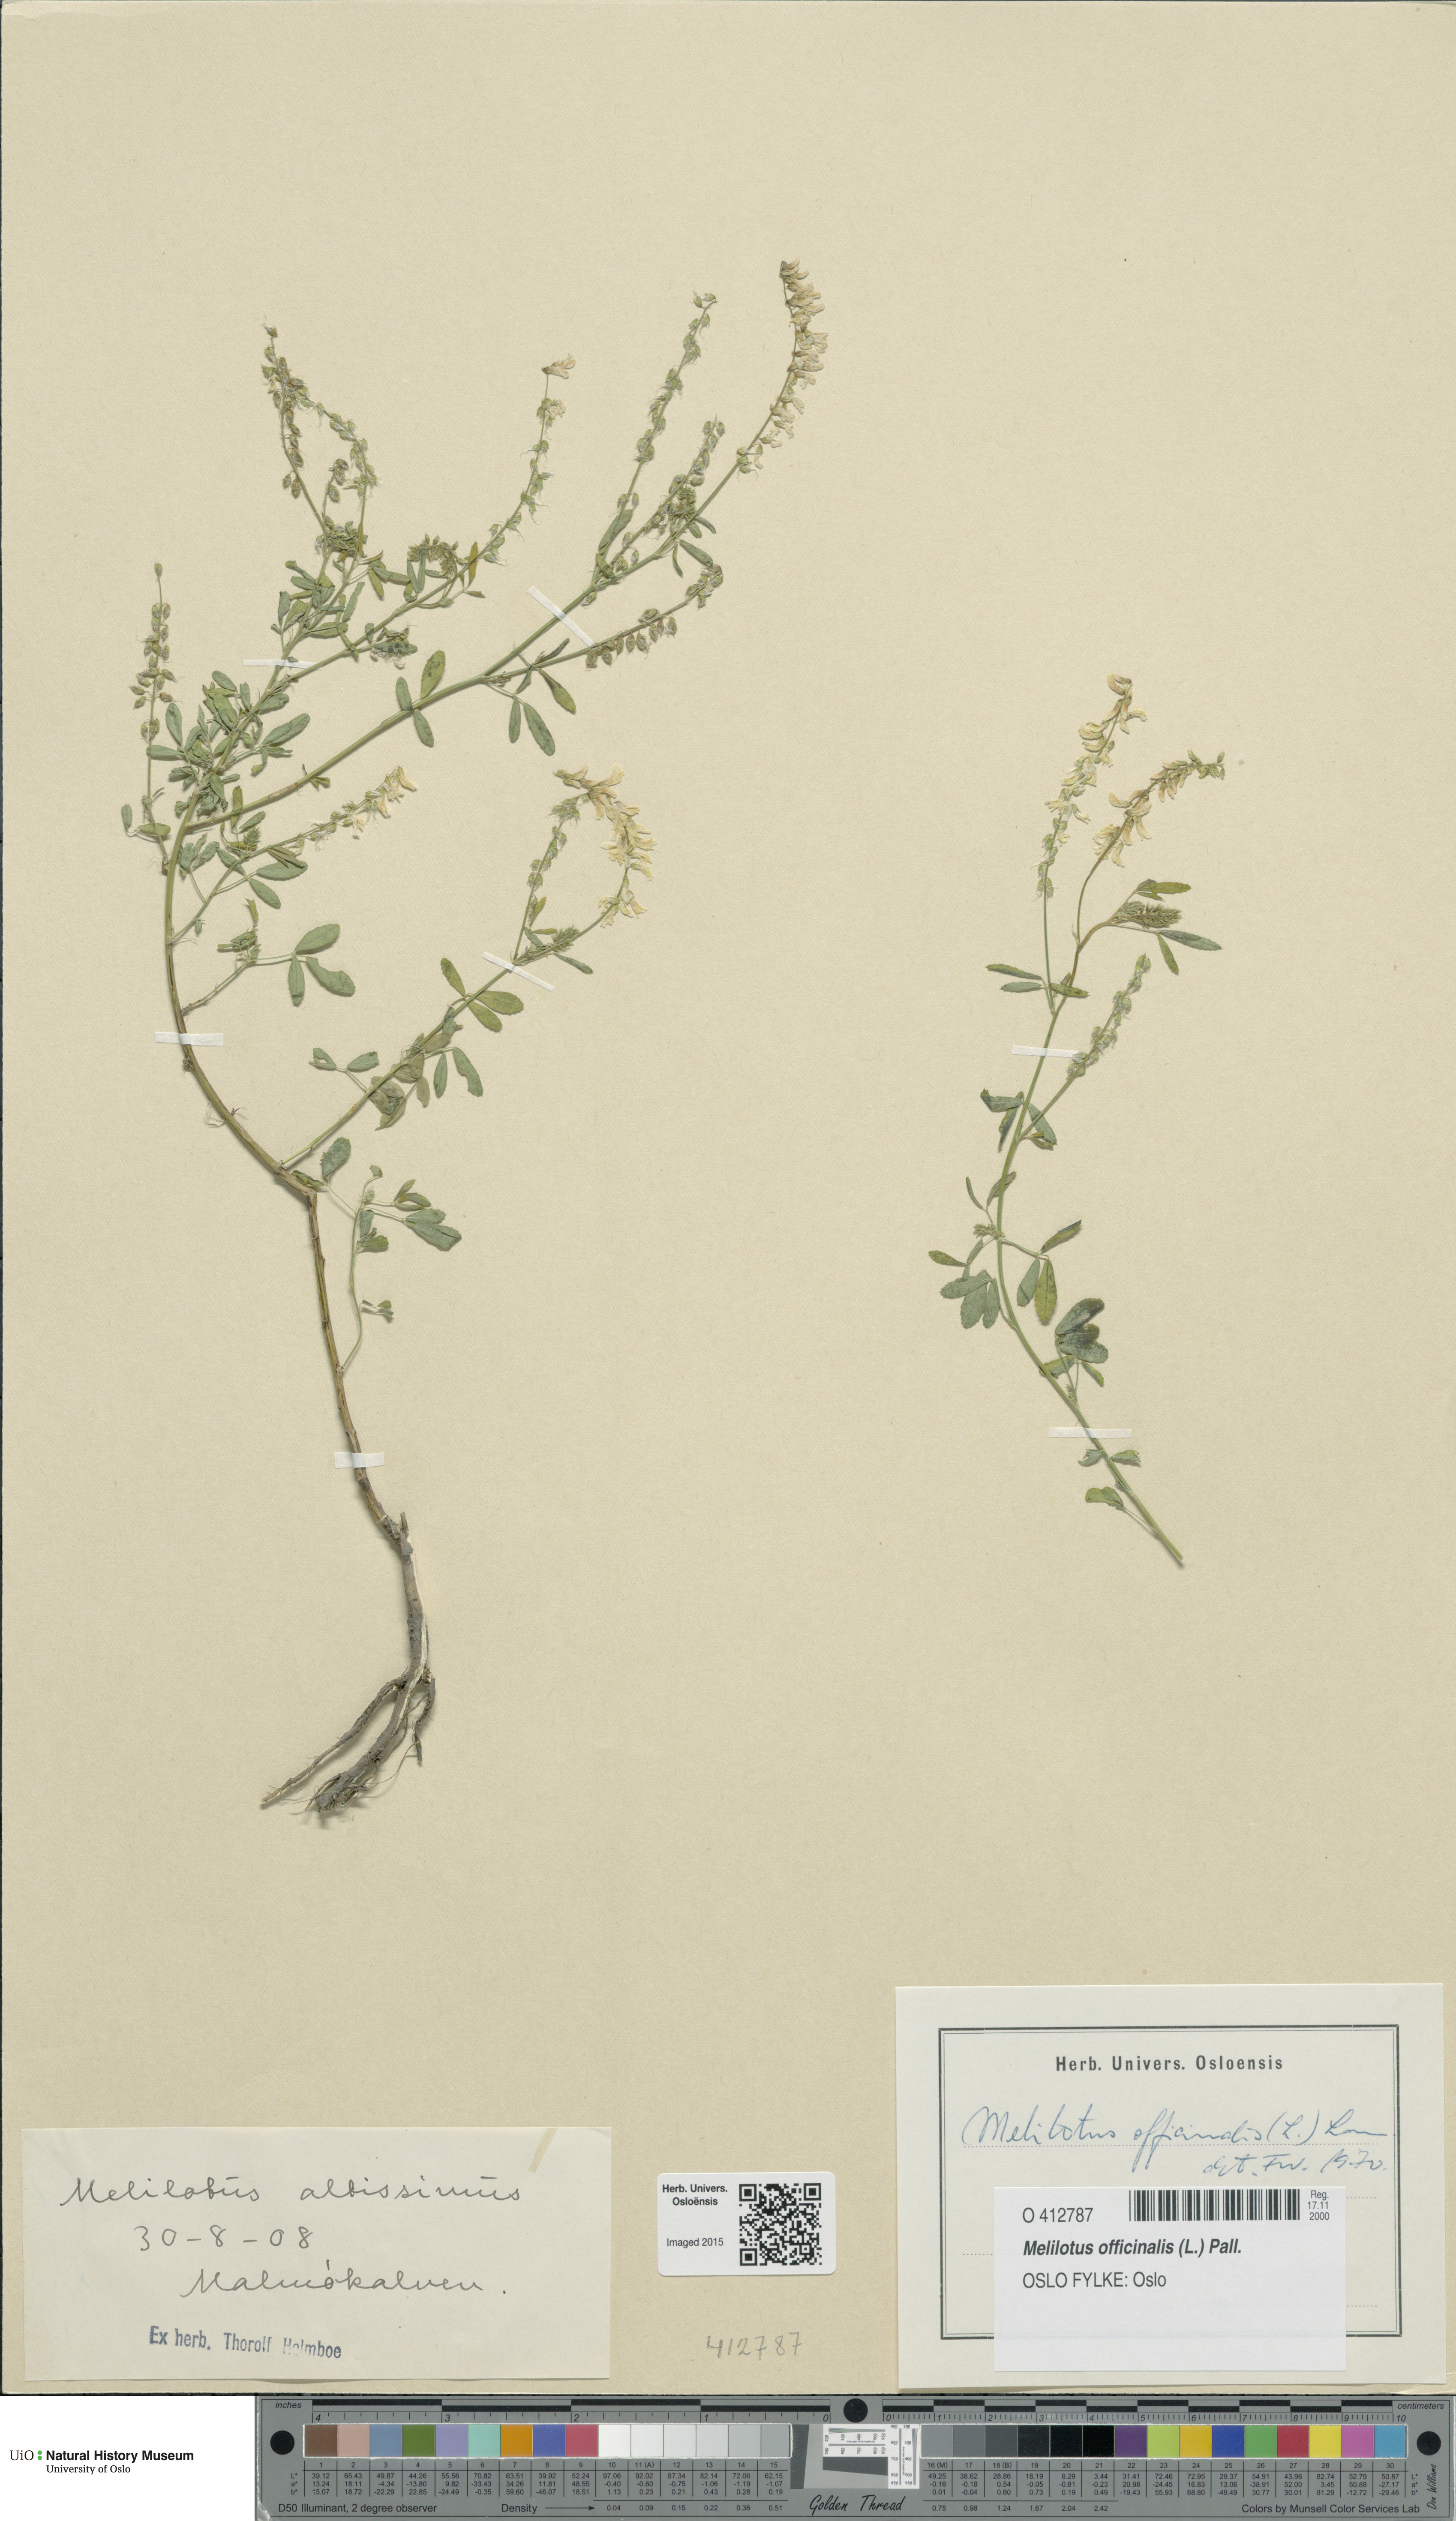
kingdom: Plantae
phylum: Tracheophyta
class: Magnoliopsida
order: Fabales
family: Fabaceae
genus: Melilotus
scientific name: Melilotus officinalis
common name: Sweetclover
